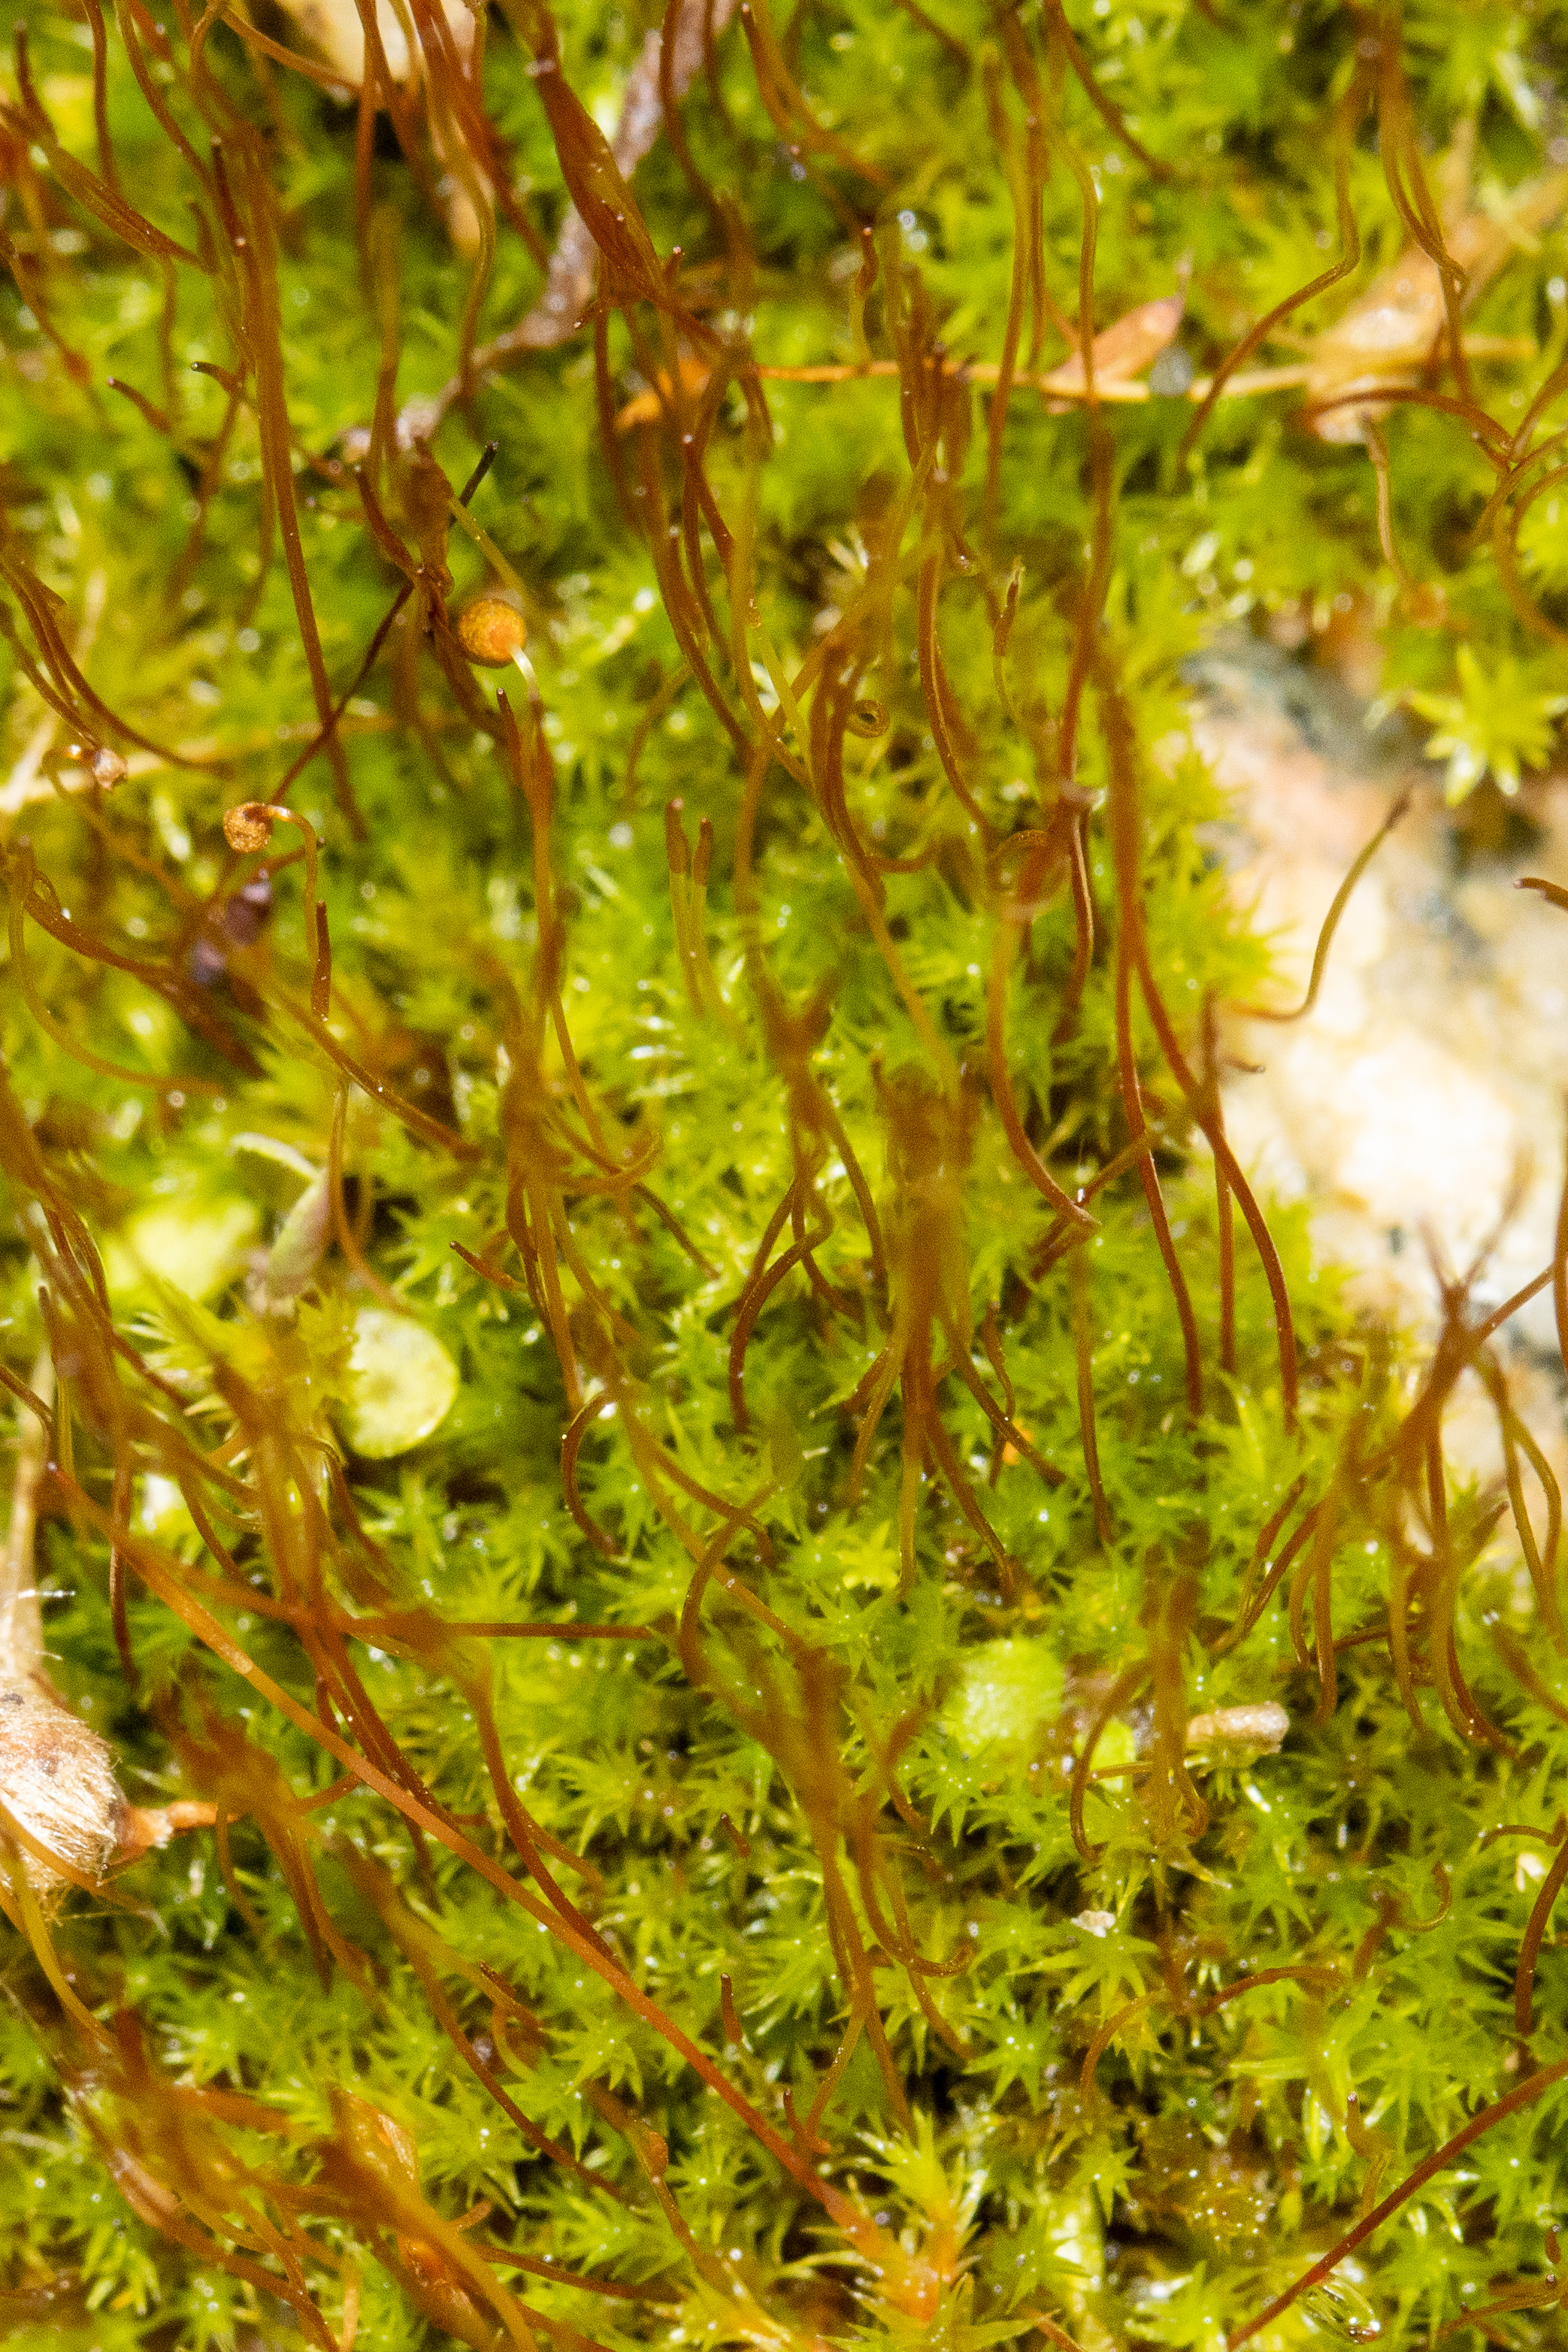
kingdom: Plantae
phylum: Bryophyta
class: Bryopsida
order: Dicranales
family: Ditrichaceae
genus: Ceratodon
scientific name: Ceratodon purpureus
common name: Rød horntand
